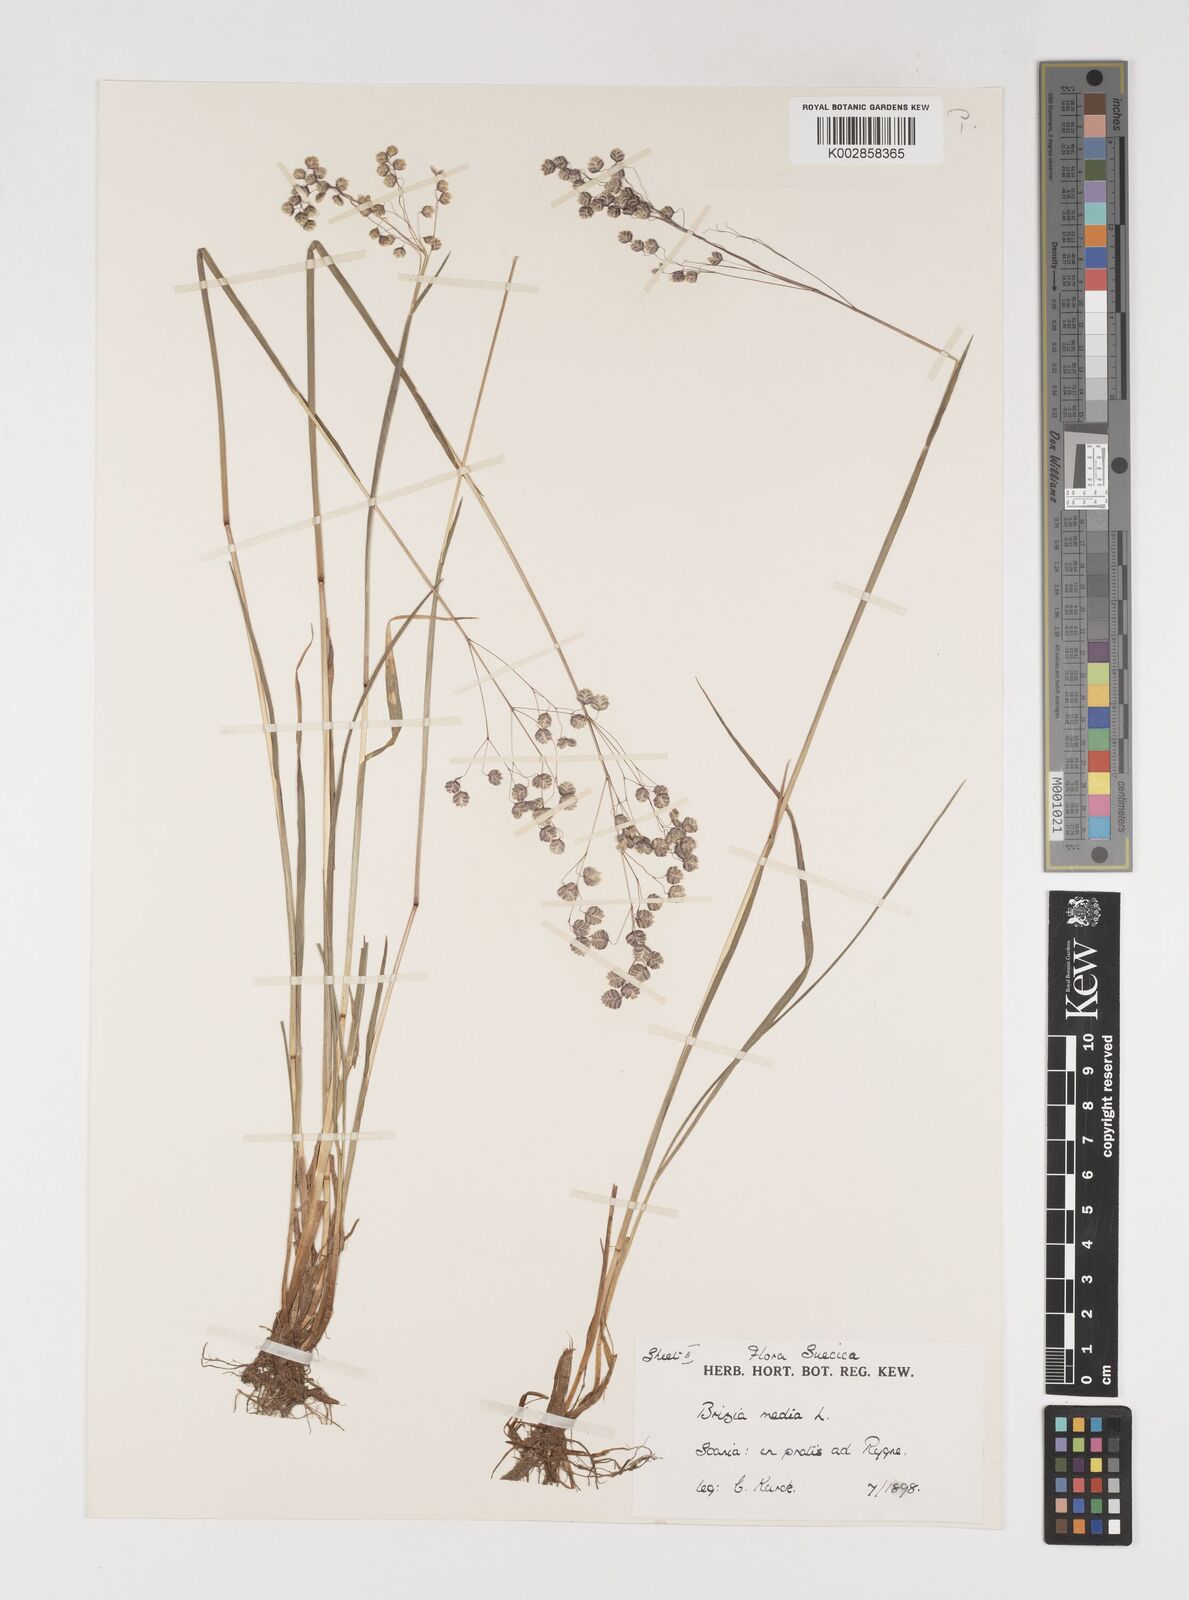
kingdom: Plantae
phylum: Tracheophyta
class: Liliopsida
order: Poales
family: Poaceae
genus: Briza
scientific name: Briza media
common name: Quaking grass
